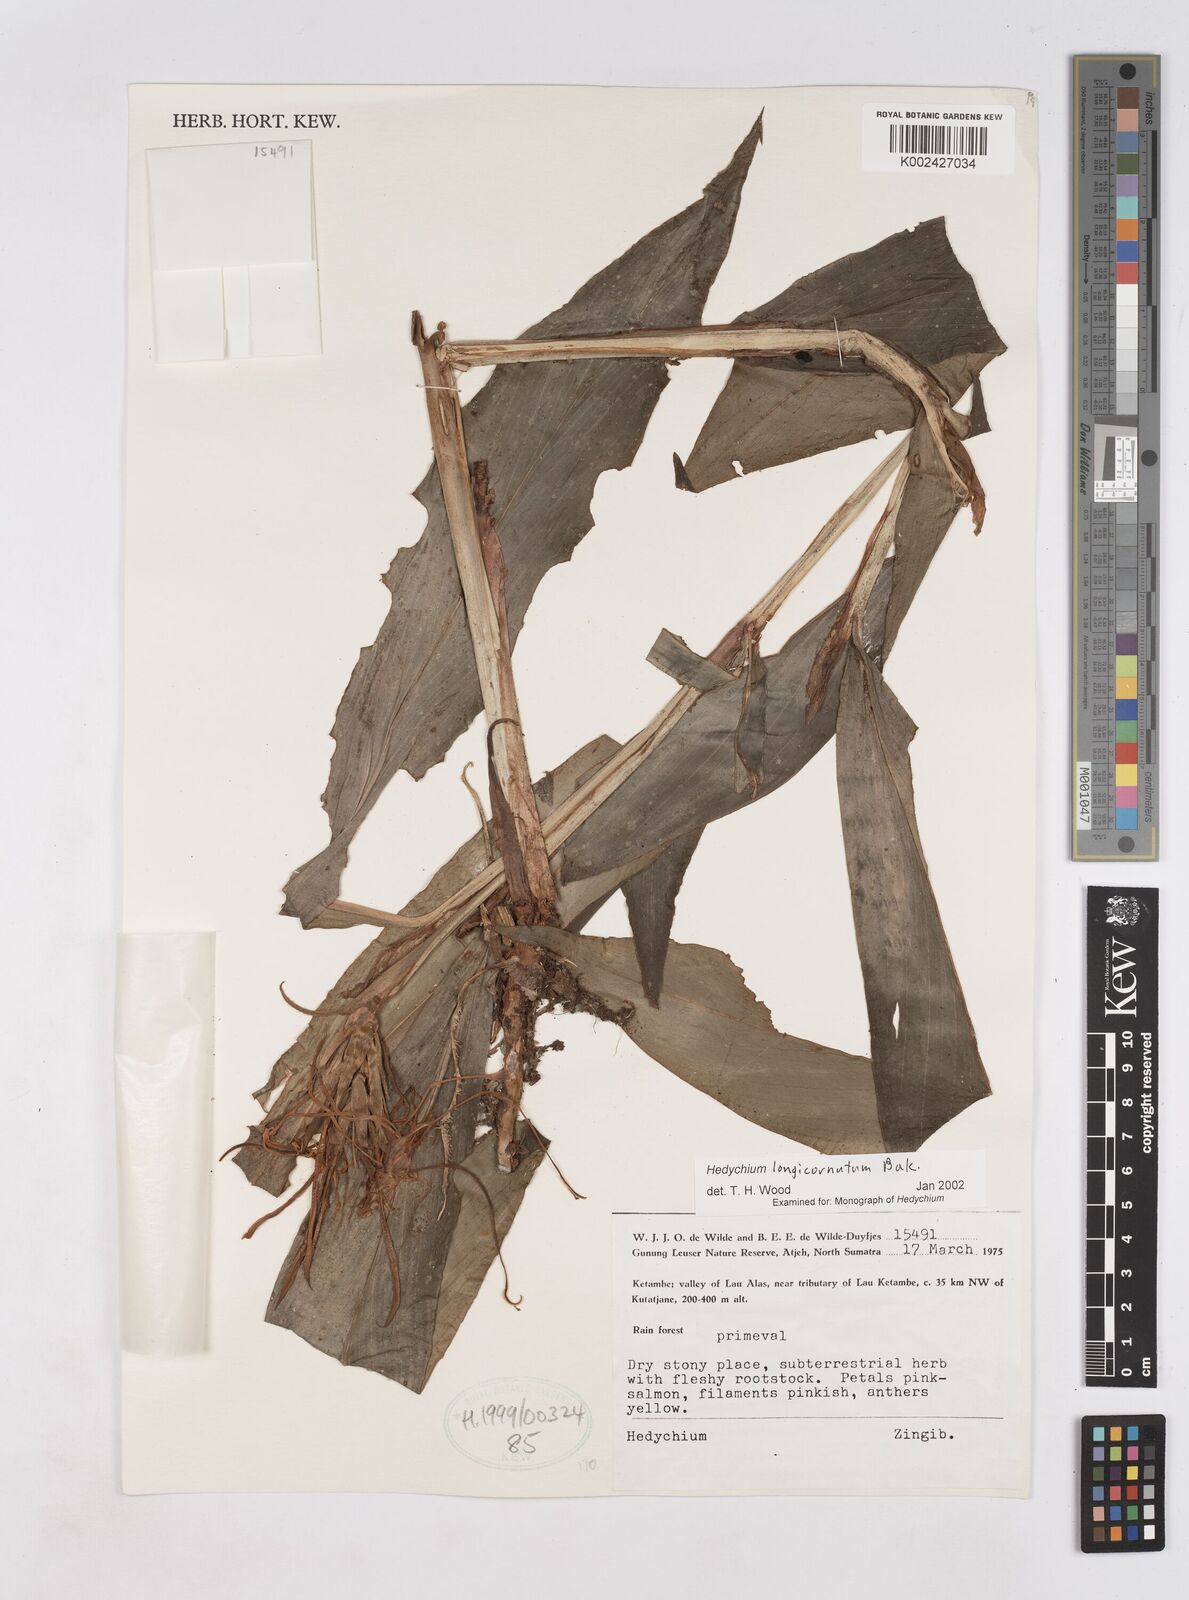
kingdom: Plantae
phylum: Tracheophyta
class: Liliopsida
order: Zingiberales
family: Zingiberaceae
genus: Hedychium
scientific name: Hedychium longicornutum
